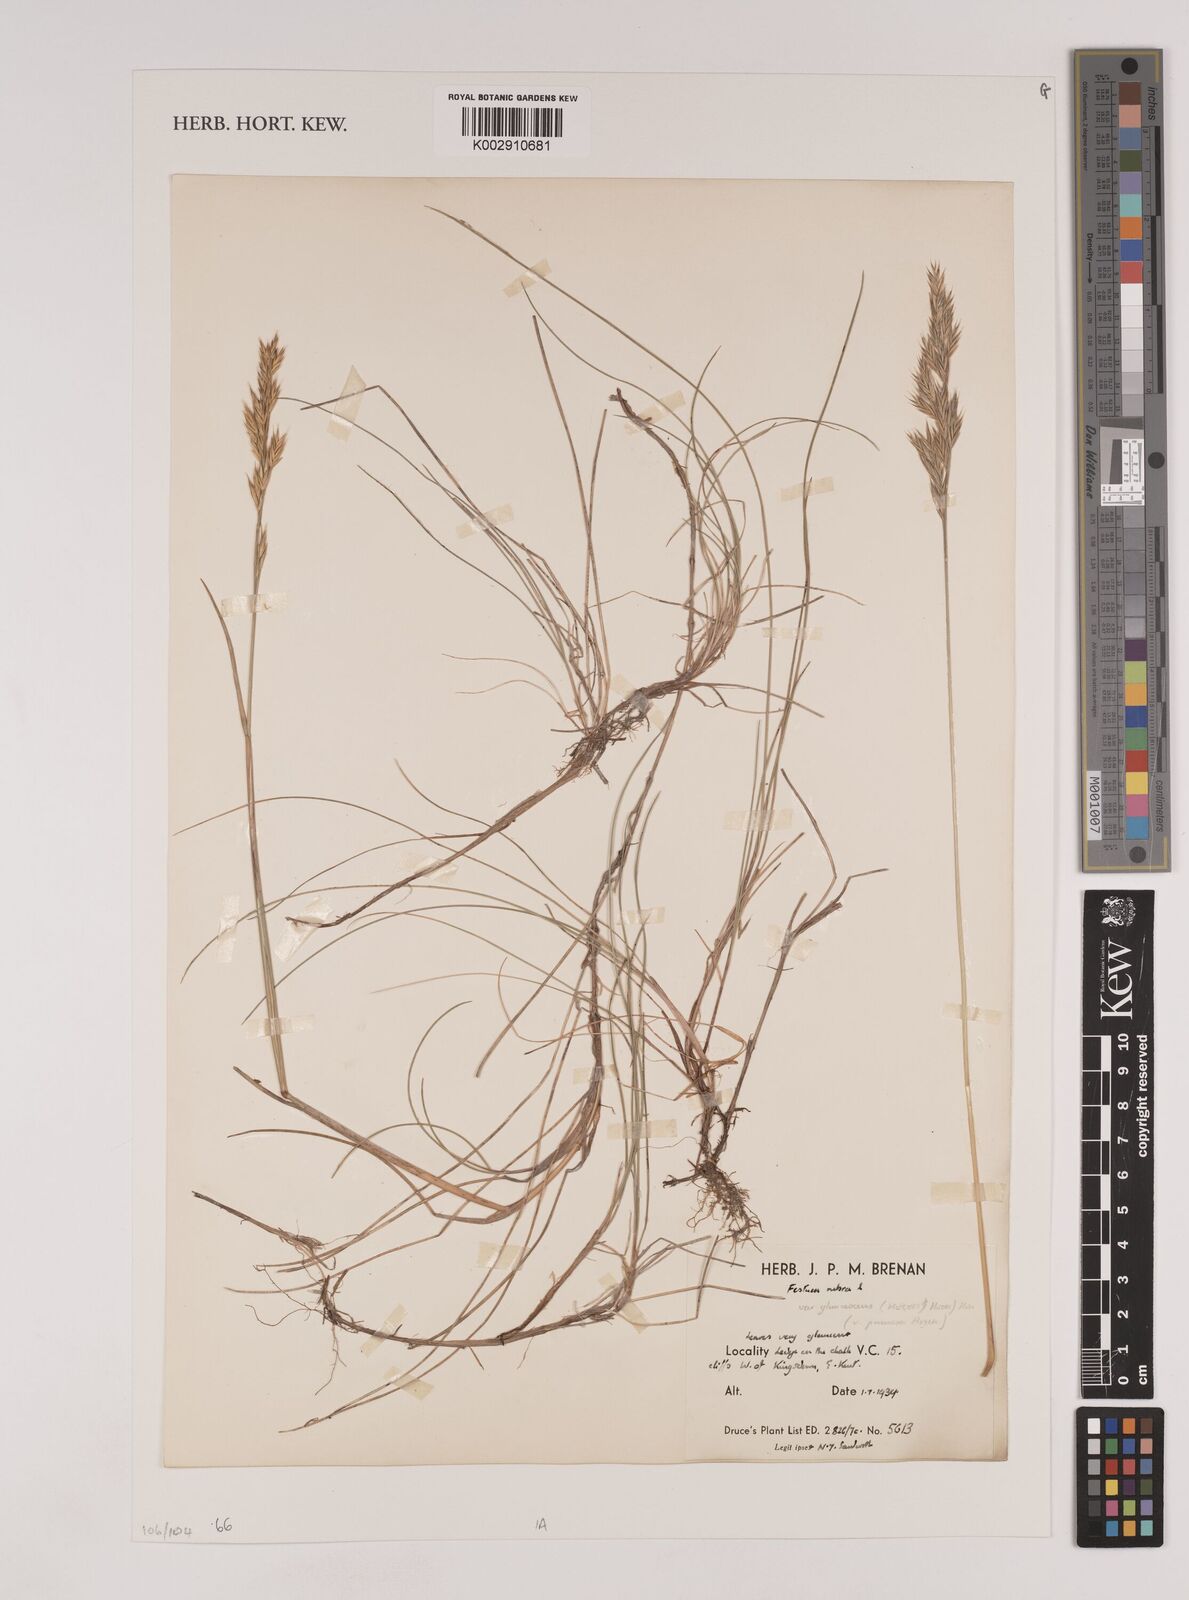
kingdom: Plantae
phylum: Tracheophyta
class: Liliopsida
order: Poales
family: Poaceae
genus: Festuca
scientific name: Festuca rubra
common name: Red fescue
